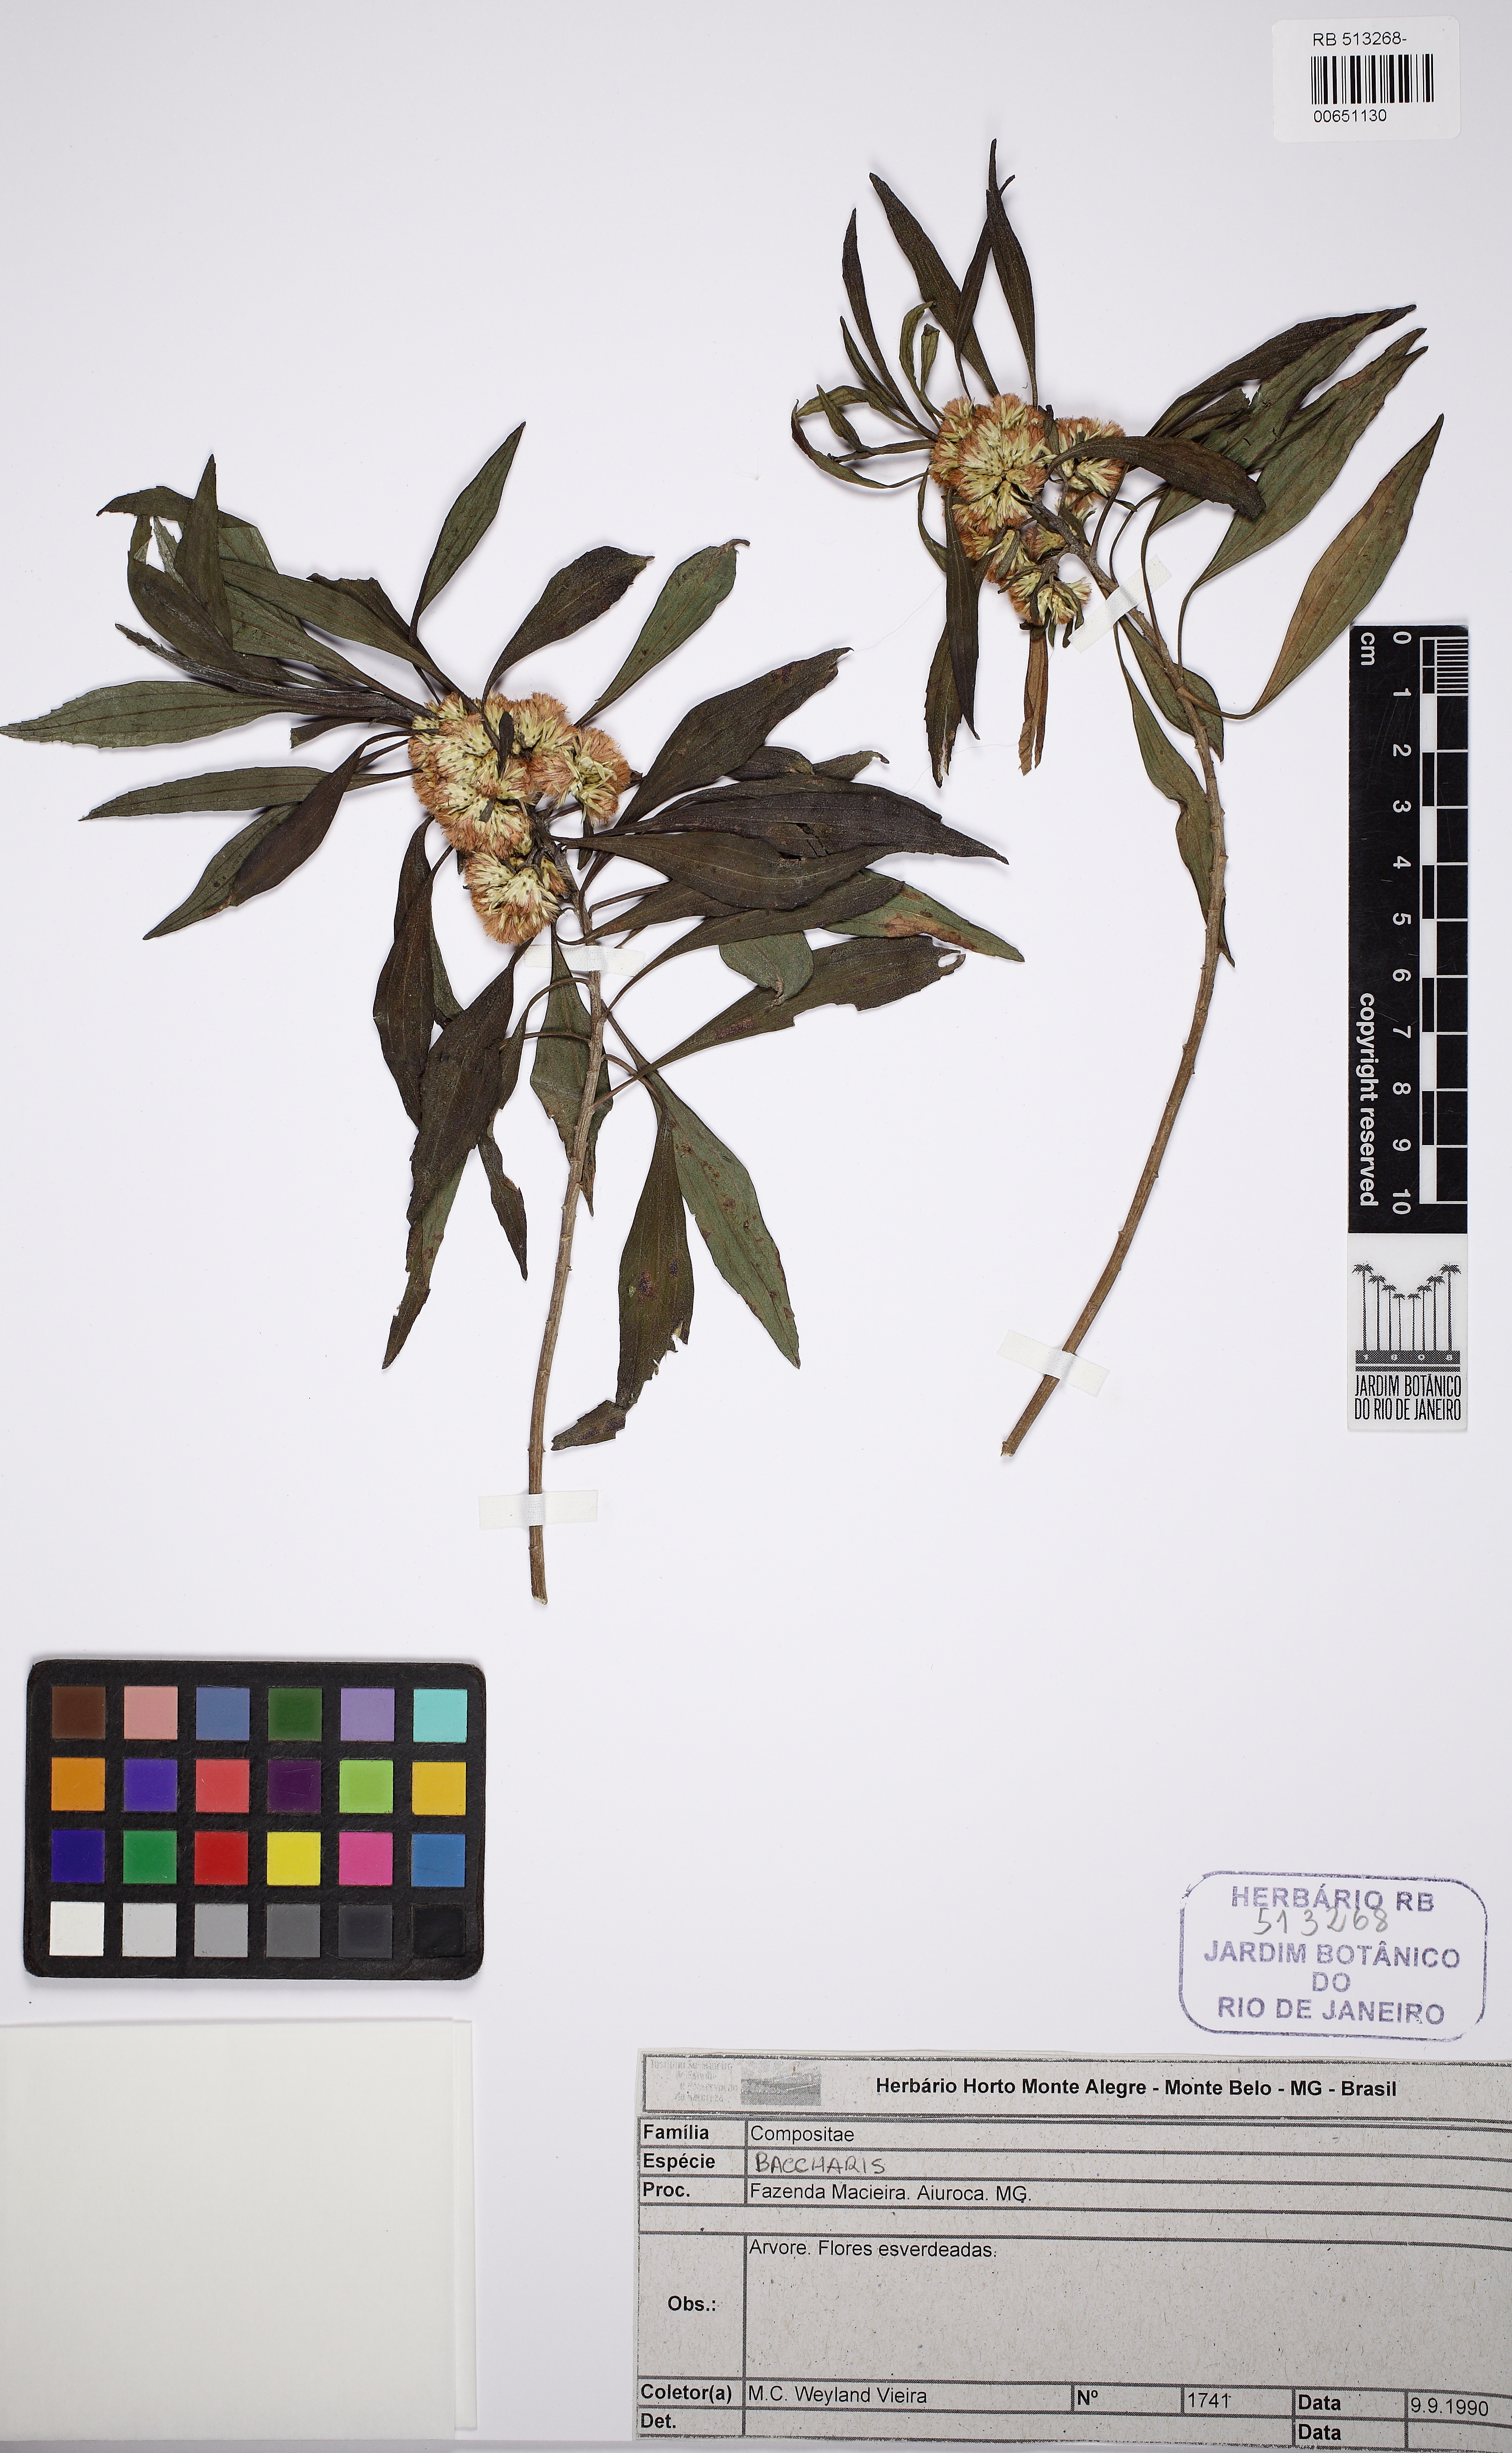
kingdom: Plantae
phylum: Tracheophyta
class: Magnoliopsida
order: Asterales
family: Asteraceae
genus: Baccharis
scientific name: Baccharis oreophila
